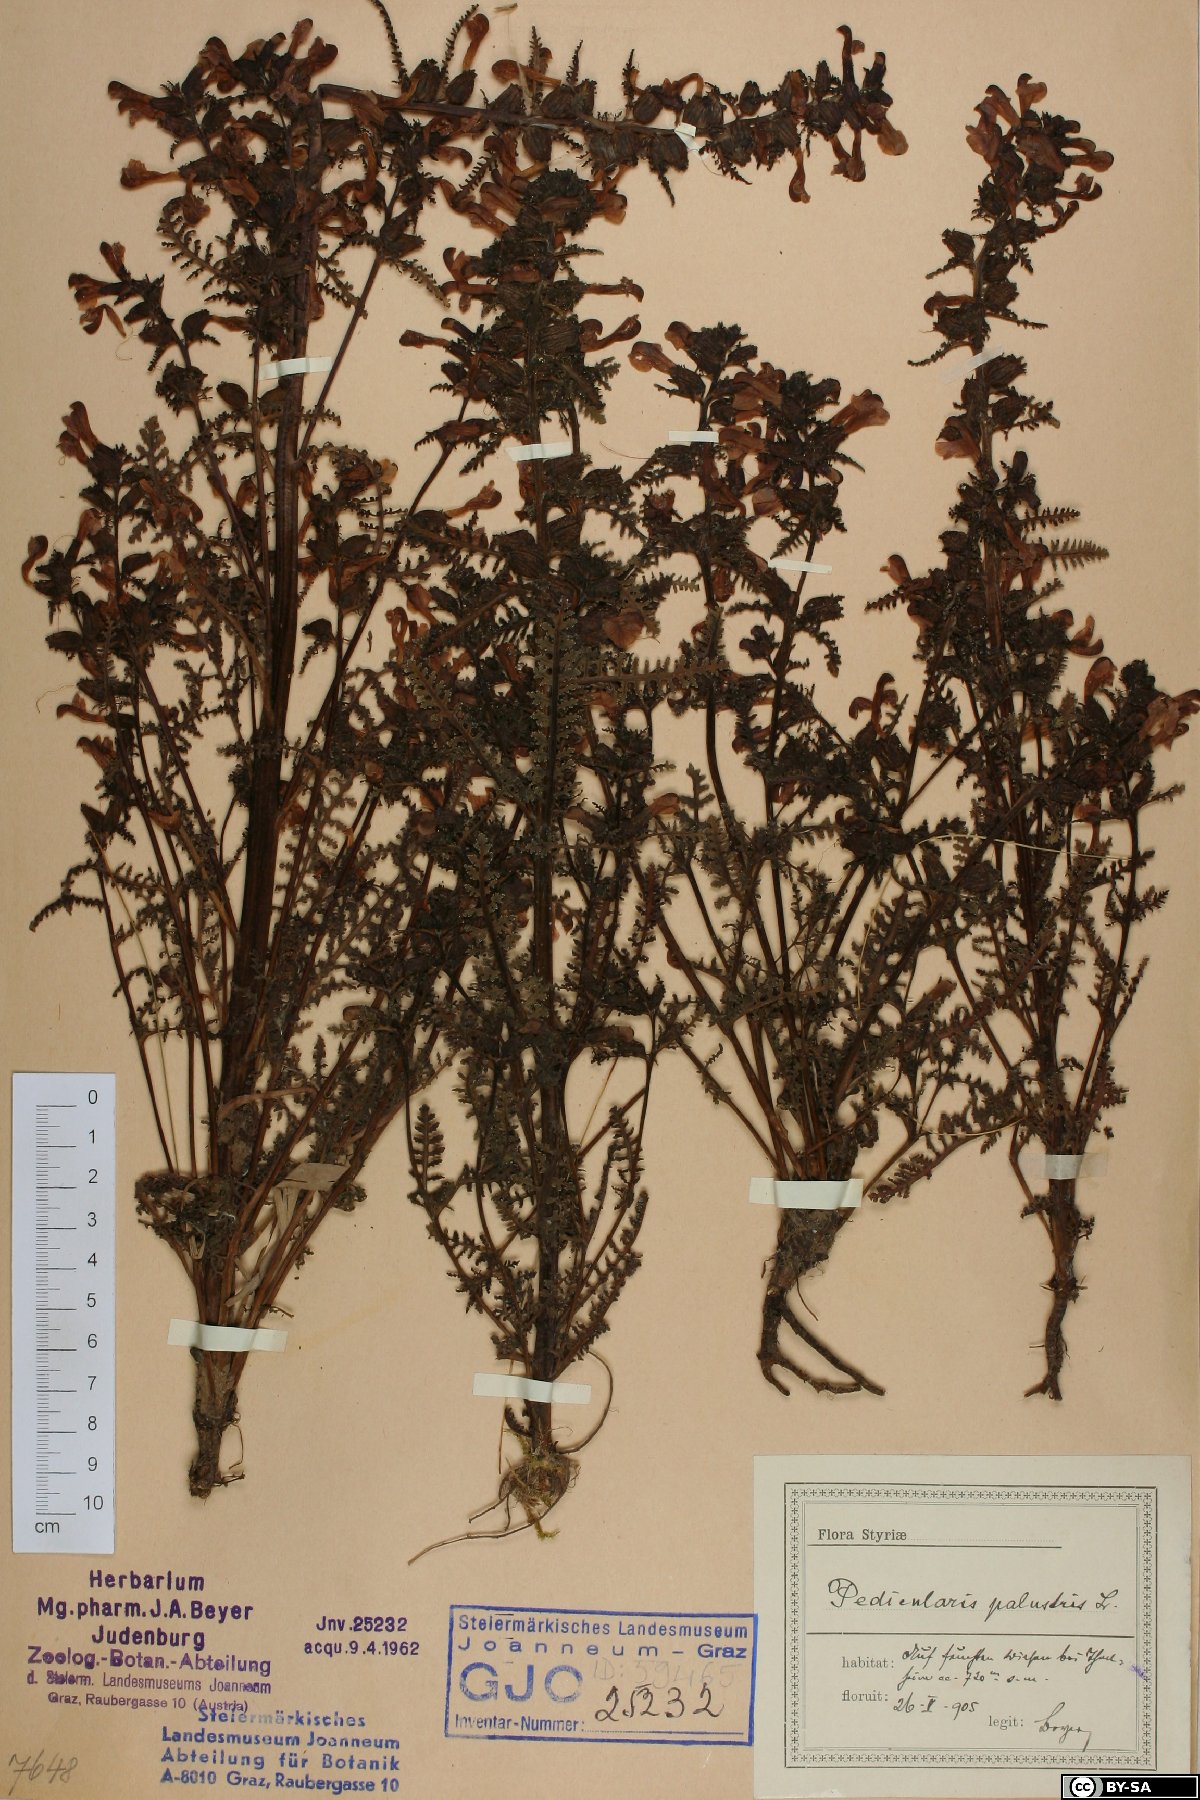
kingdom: Plantae
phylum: Tracheophyta
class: Magnoliopsida
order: Lamiales
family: Orobanchaceae
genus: Pedicularis
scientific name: Pedicularis palustris
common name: Marsh lousewort
